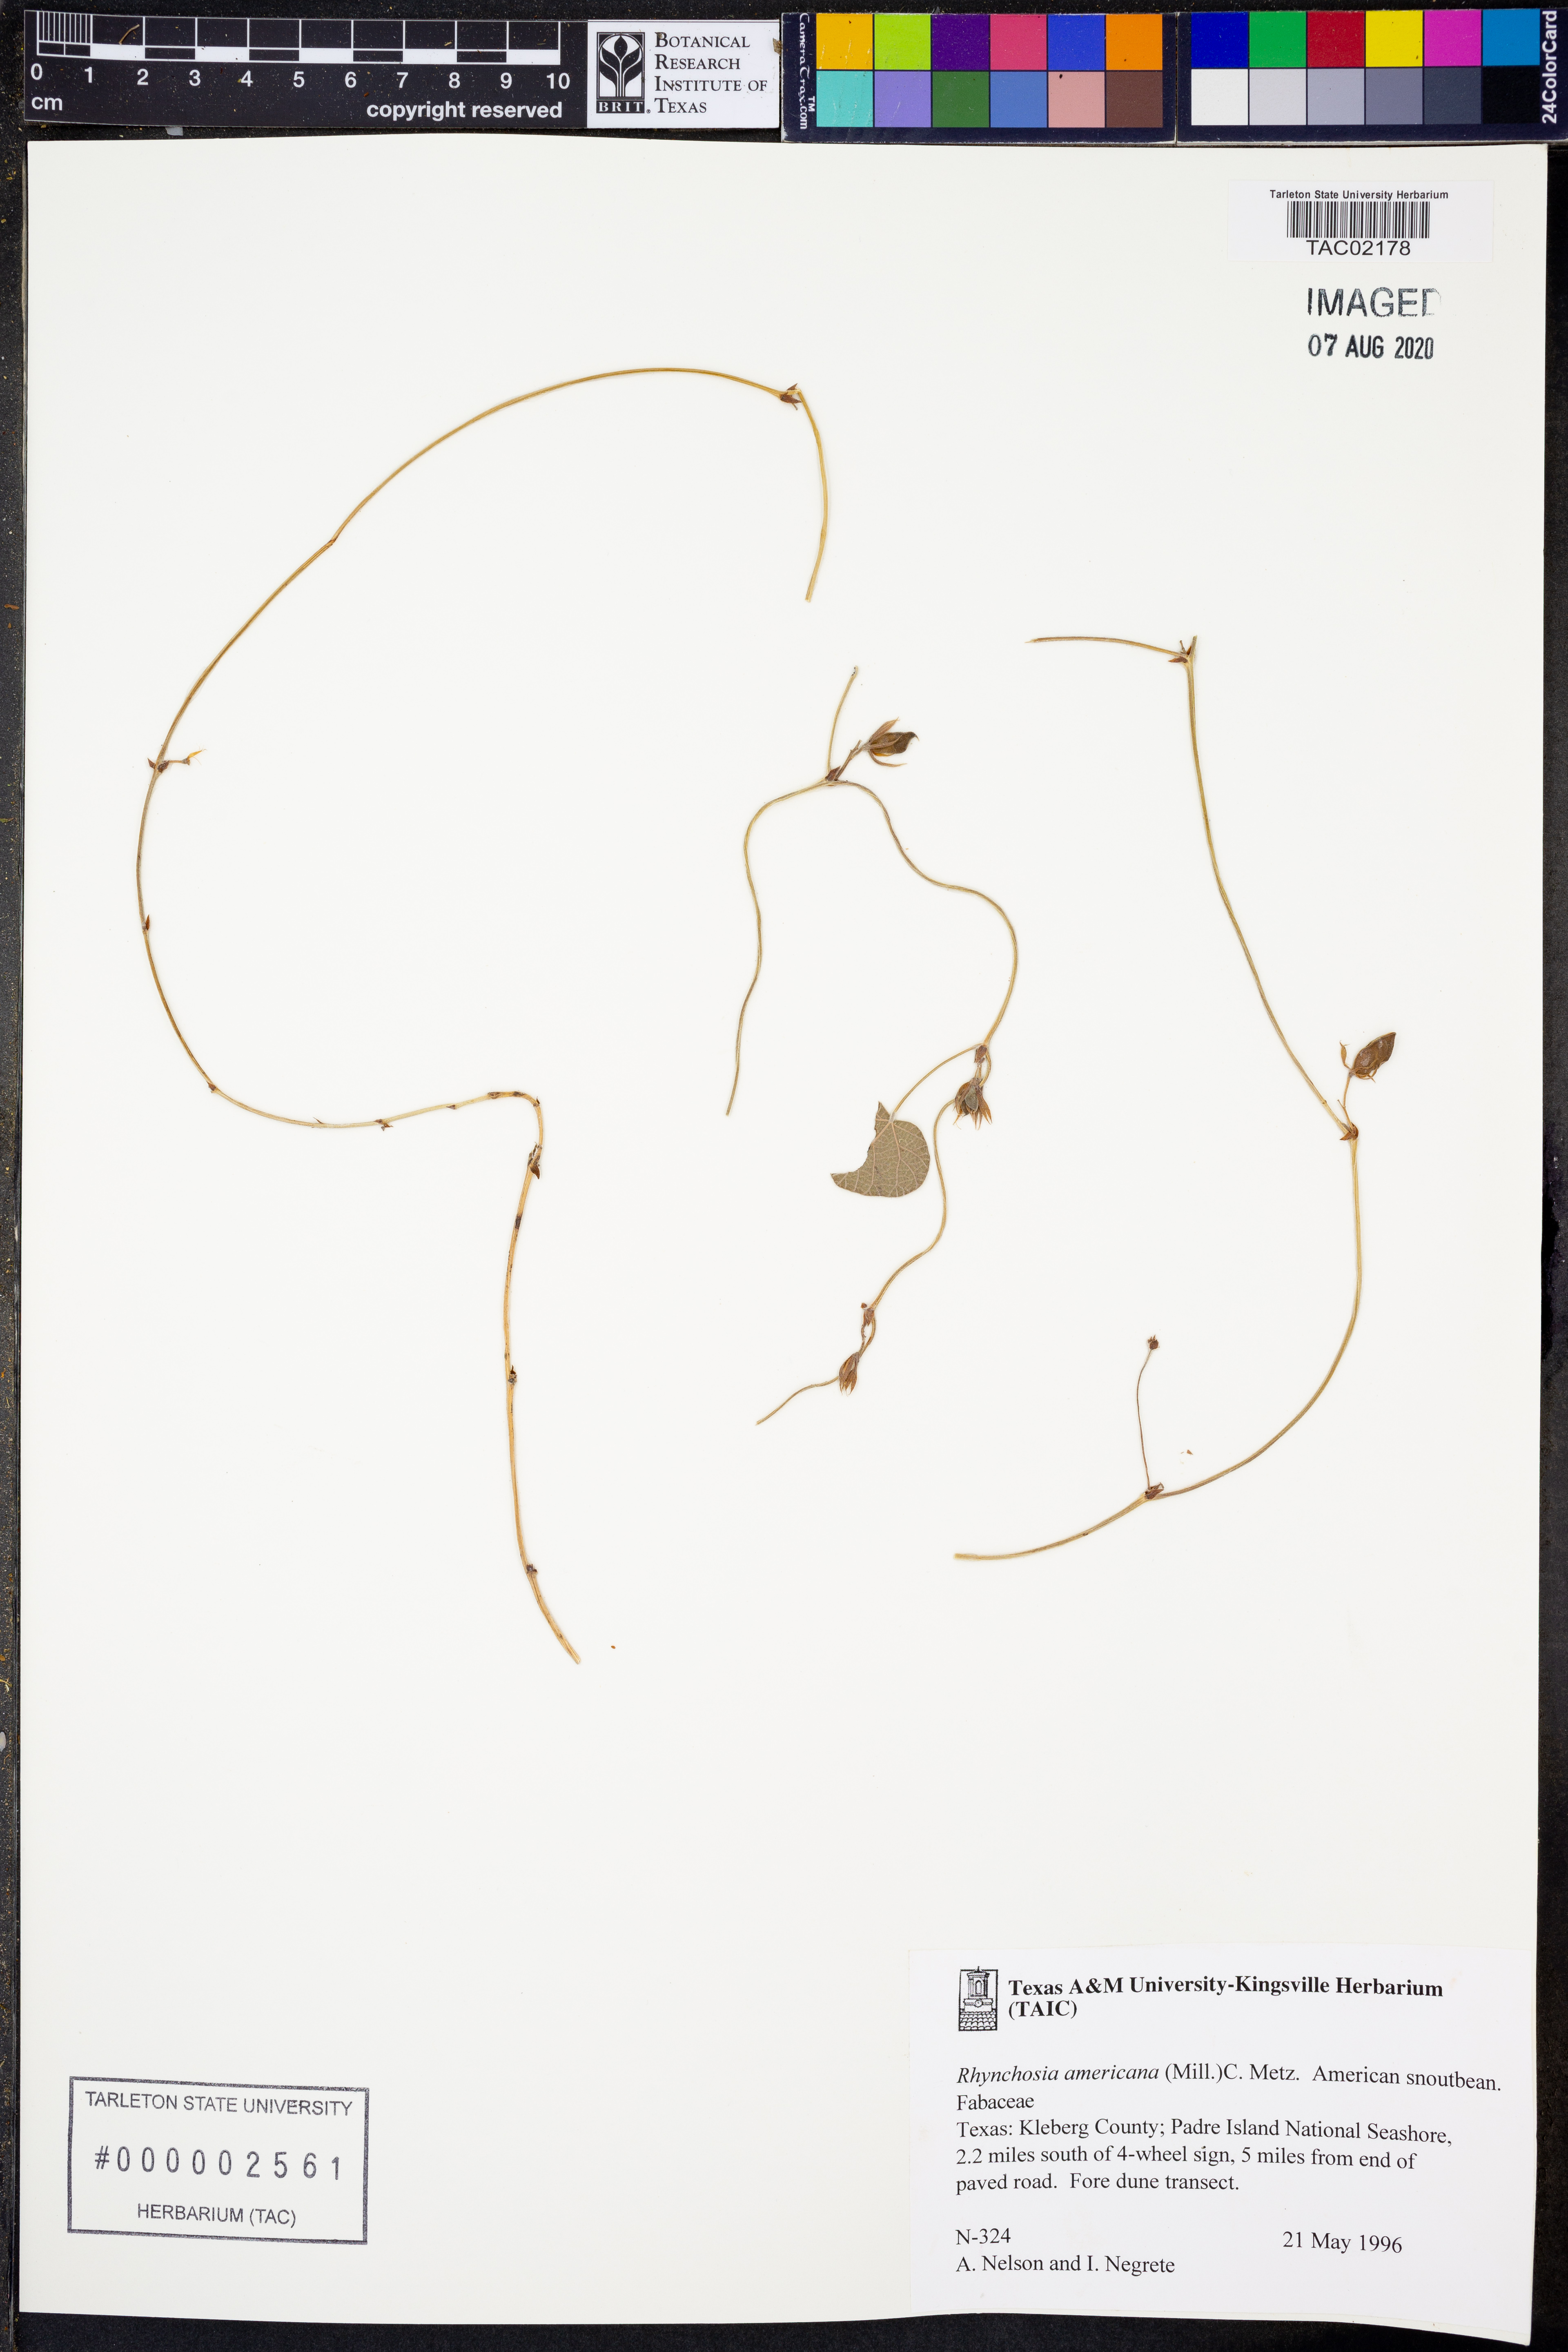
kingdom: Plantae
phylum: Tracheophyta
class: Magnoliopsida
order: Fabales
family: Fabaceae
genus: Rhynchosia
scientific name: Rhynchosia americana
